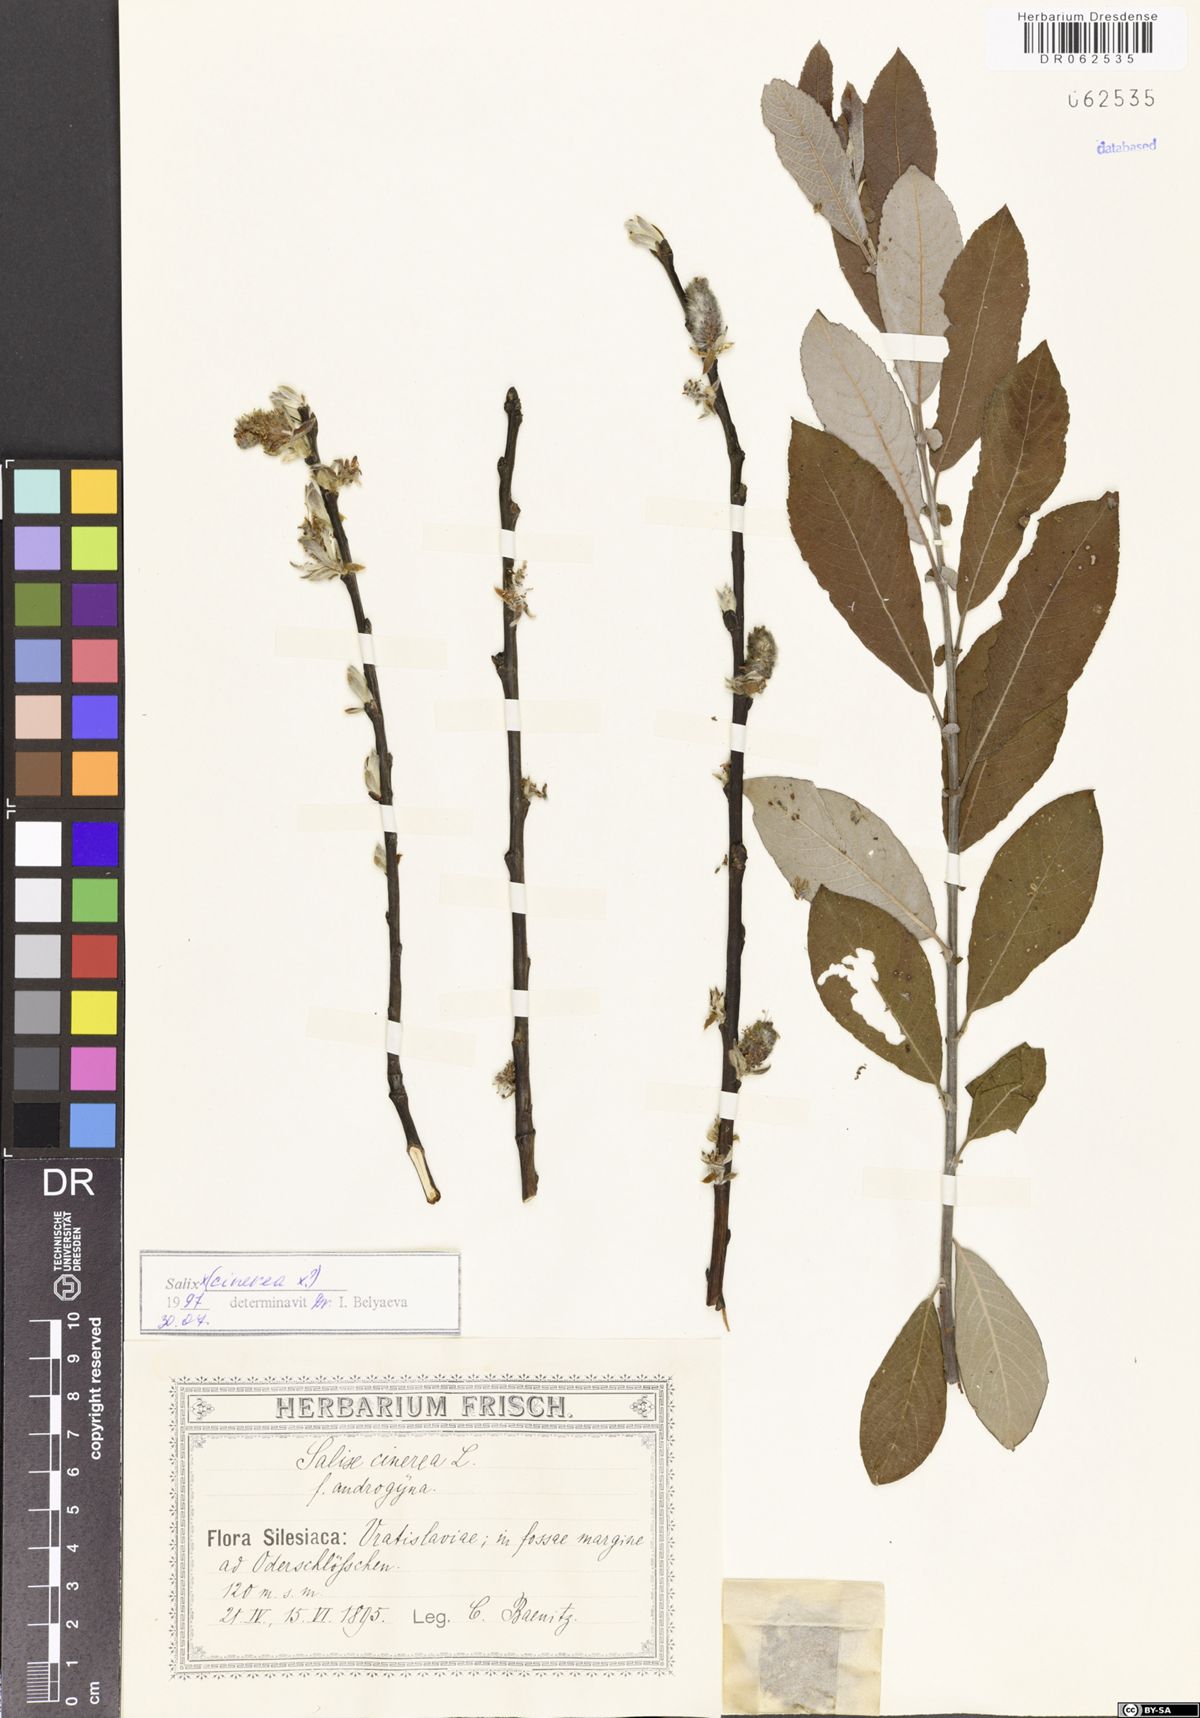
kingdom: Plantae
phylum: Tracheophyta
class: Magnoliopsida
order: Malpighiales
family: Salicaceae
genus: Salix
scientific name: Salix cinerea
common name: Common sallow
